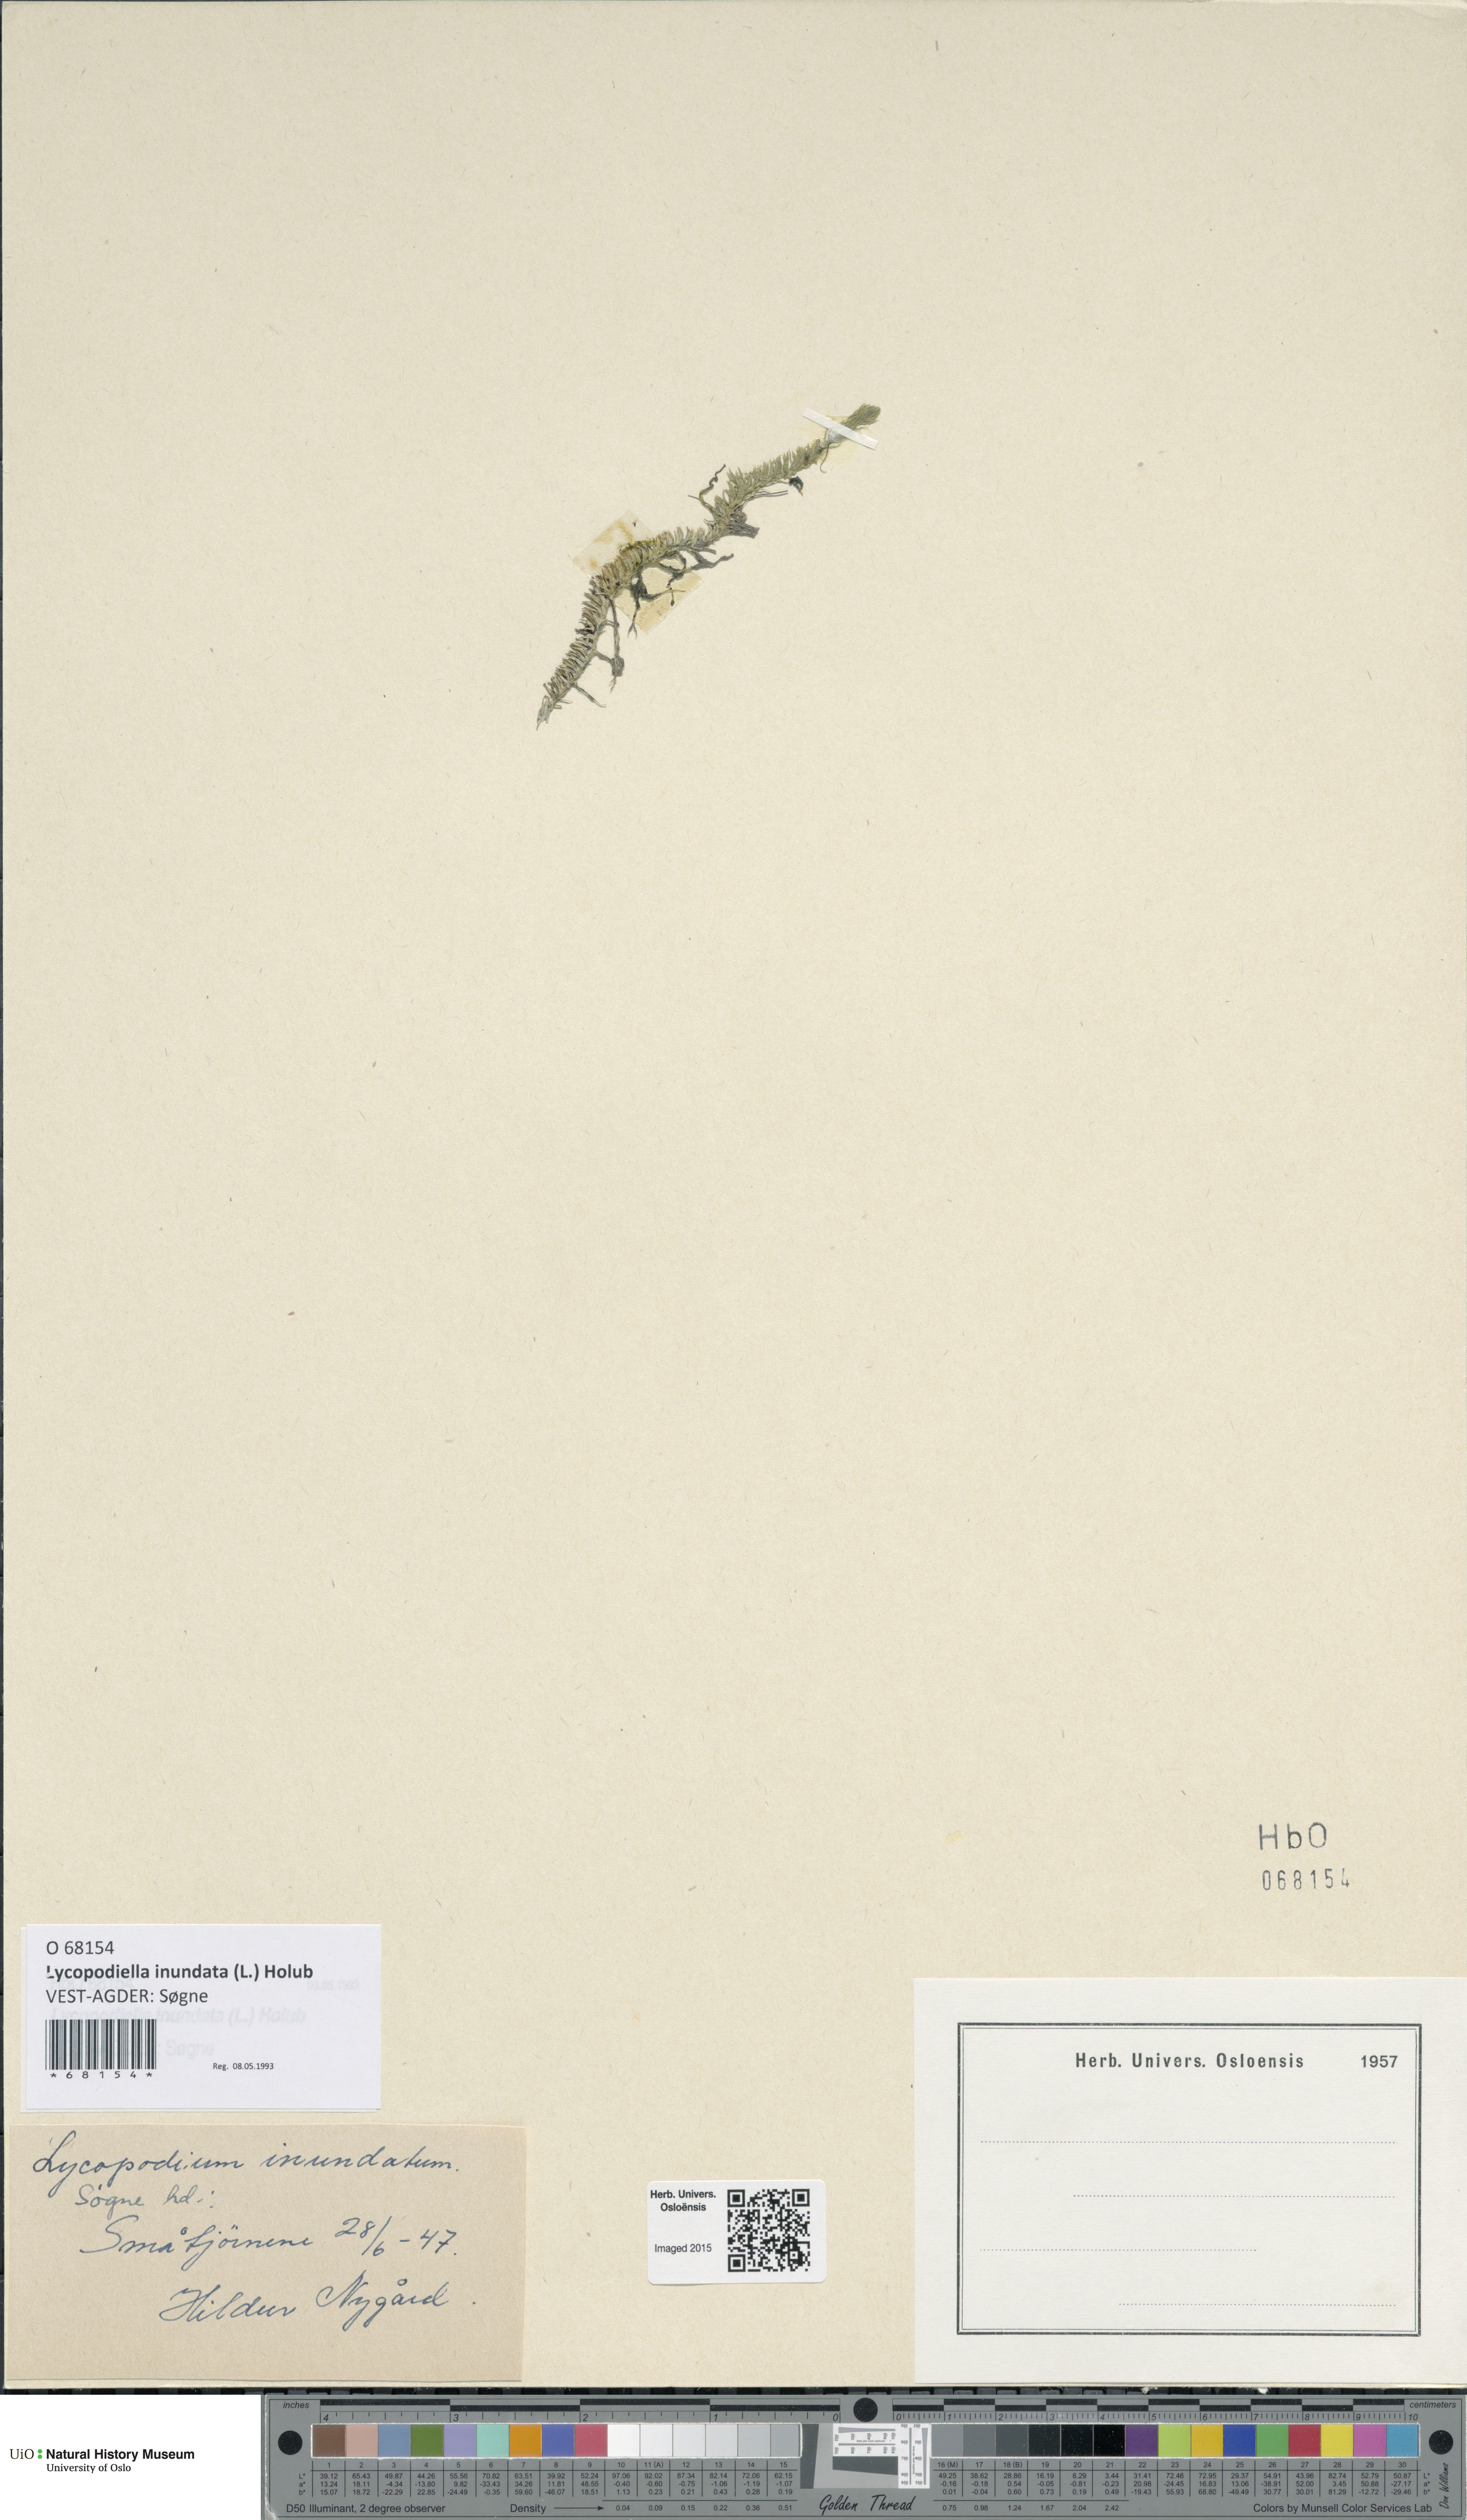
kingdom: Plantae
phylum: Tracheophyta
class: Lycopodiopsida
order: Lycopodiales
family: Lycopodiaceae
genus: Lycopodiella
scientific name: Lycopodiella inundata
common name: Marsh clubmoss
